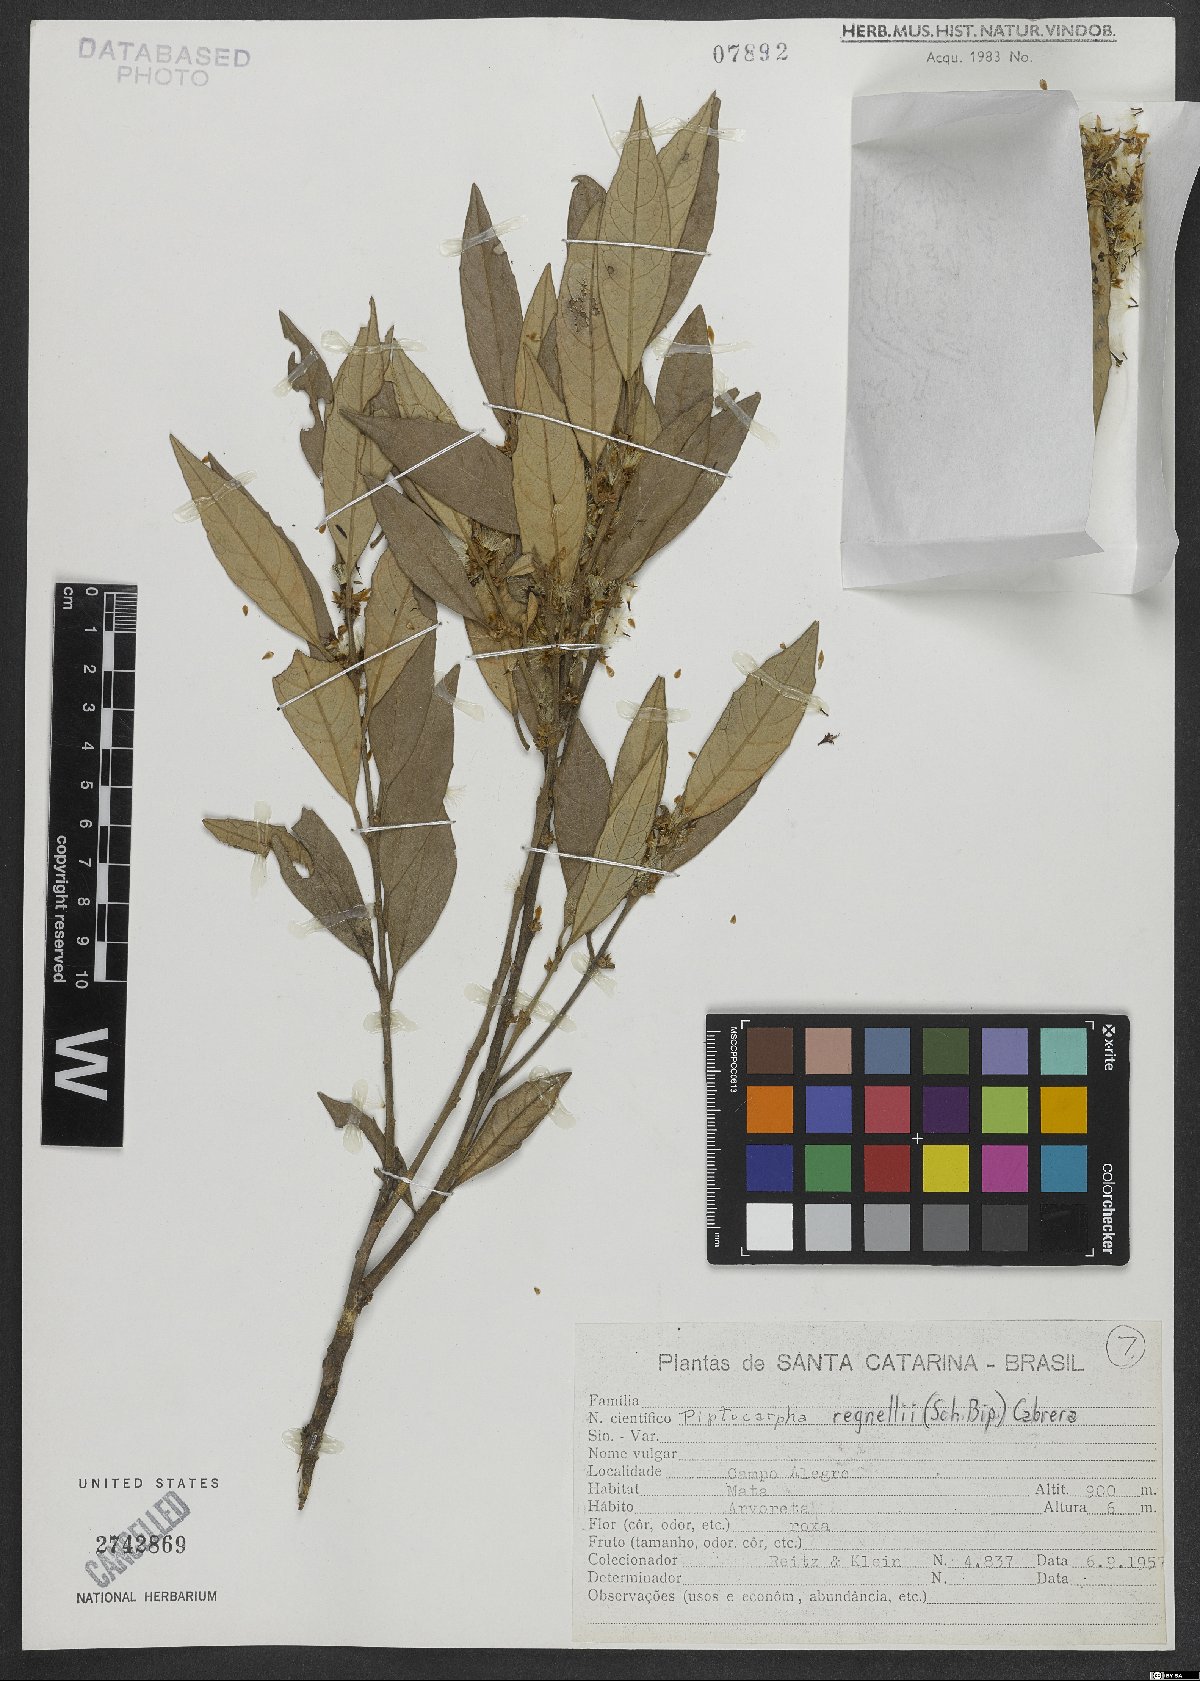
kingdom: Plantae
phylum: Tracheophyta
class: Magnoliopsida
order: Asterales
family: Asteraceae
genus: Piptocarpha
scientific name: Piptocarpha regnellii
